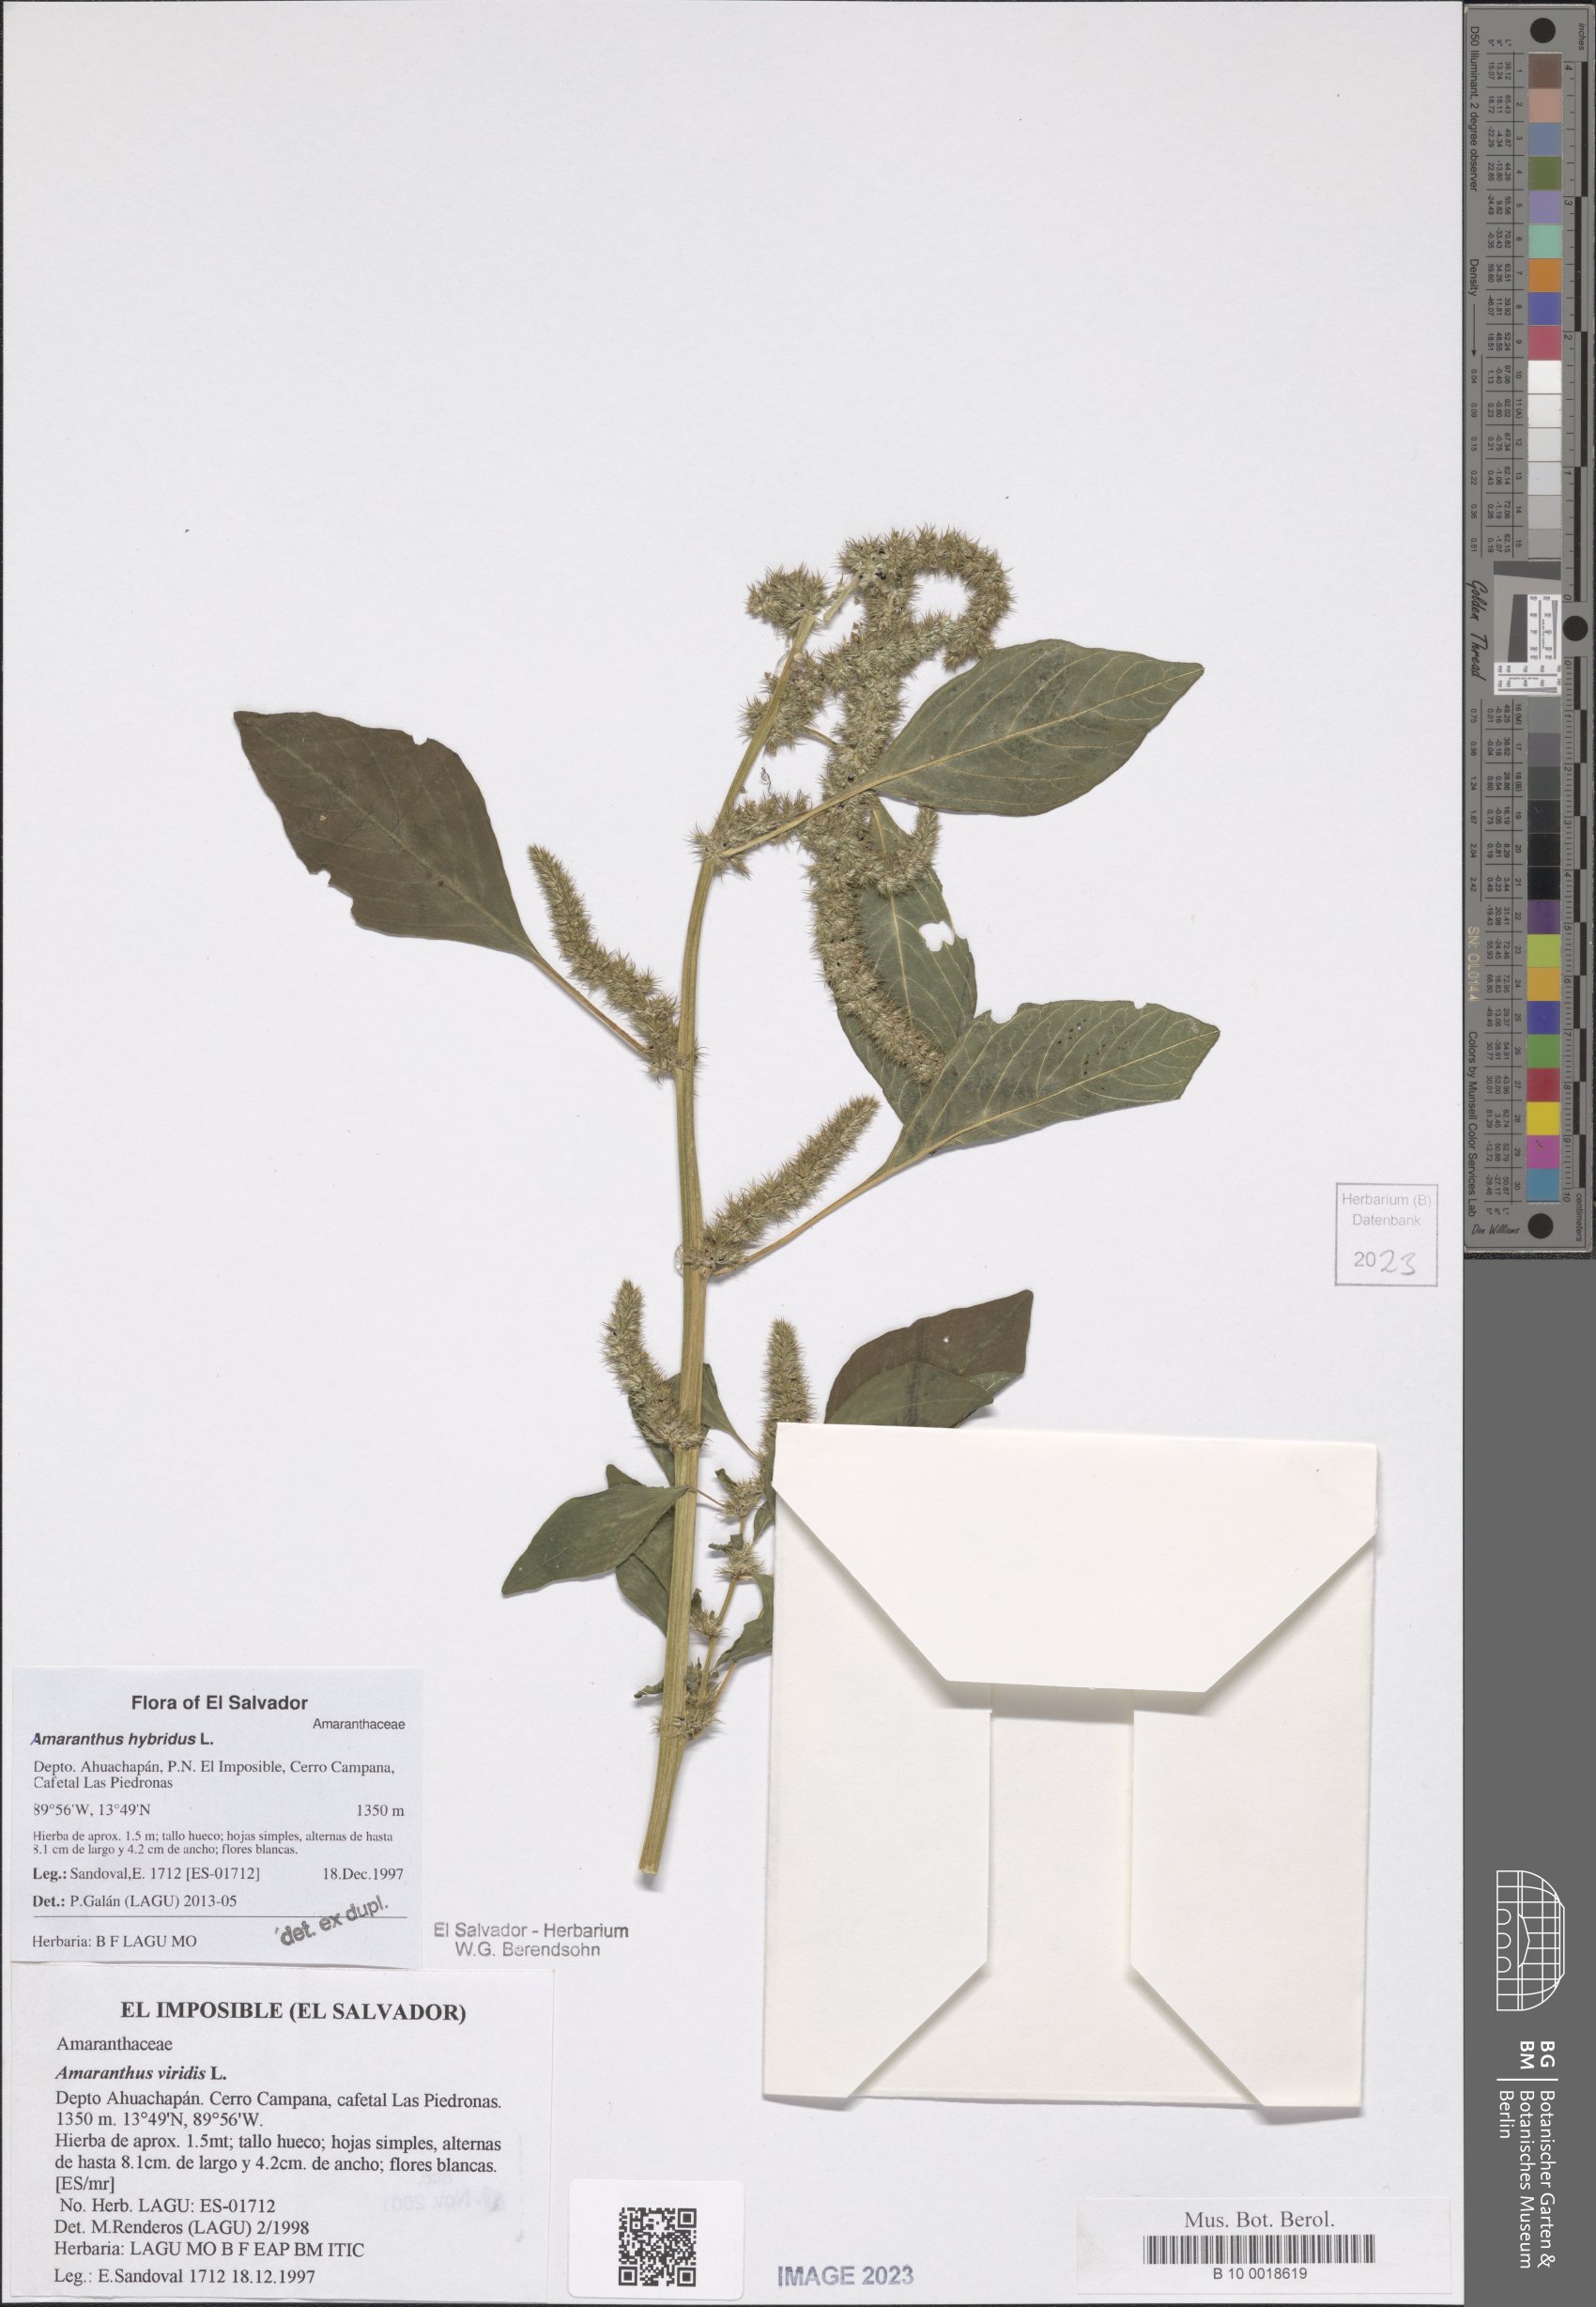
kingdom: Plantae
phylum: Tracheophyta
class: Magnoliopsida
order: Caryophyllales
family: Amaranthaceae
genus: Amaranthus
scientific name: Amaranthus hybridus
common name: Green amaranth
